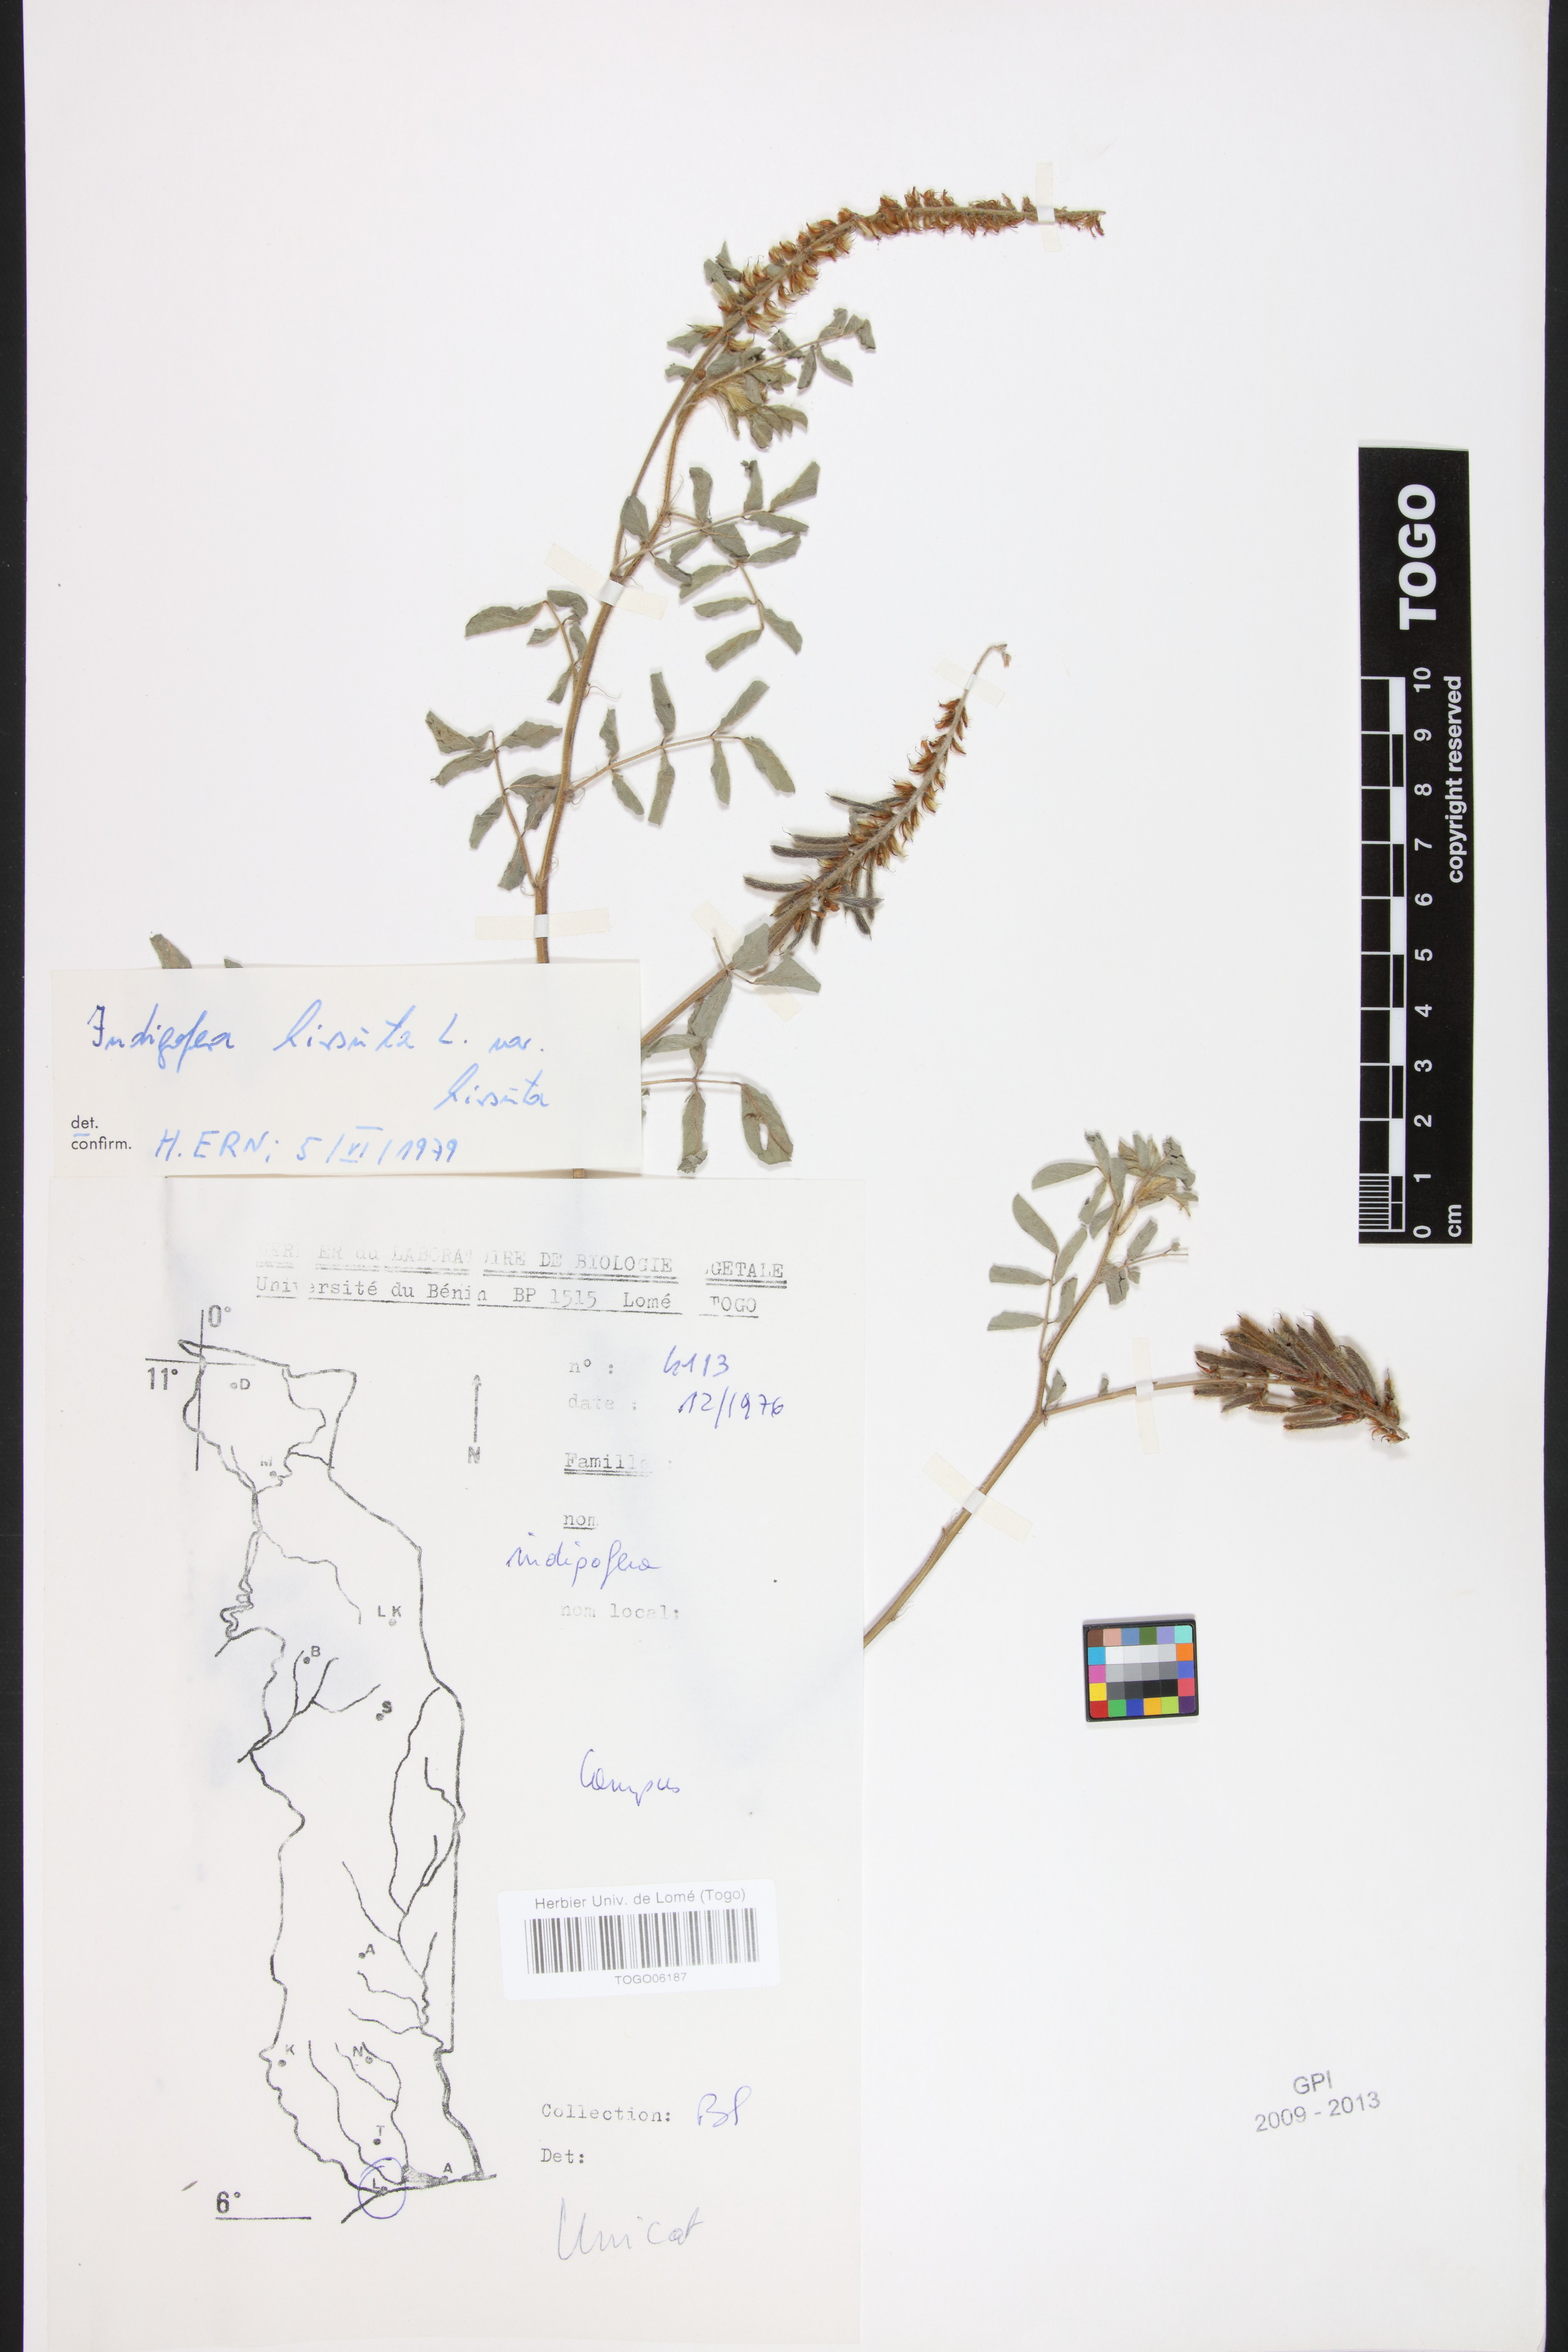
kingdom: Plantae
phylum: Tracheophyta
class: Magnoliopsida
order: Fabales
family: Fabaceae
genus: Indigofera
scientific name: Indigofera hirsuta
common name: Hairy indigo
